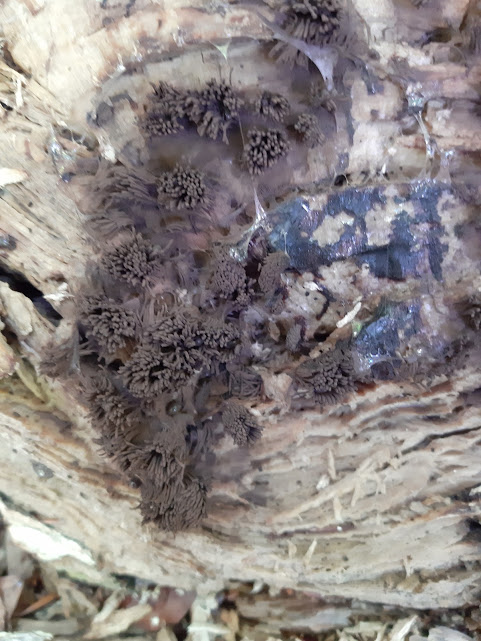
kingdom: Protozoa
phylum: Mycetozoa
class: Myxomycetes
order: Stemonitidales
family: Stemonitidaceae
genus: Stemonitis
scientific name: Stemonitis fusca
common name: sodbrun støvkølle
